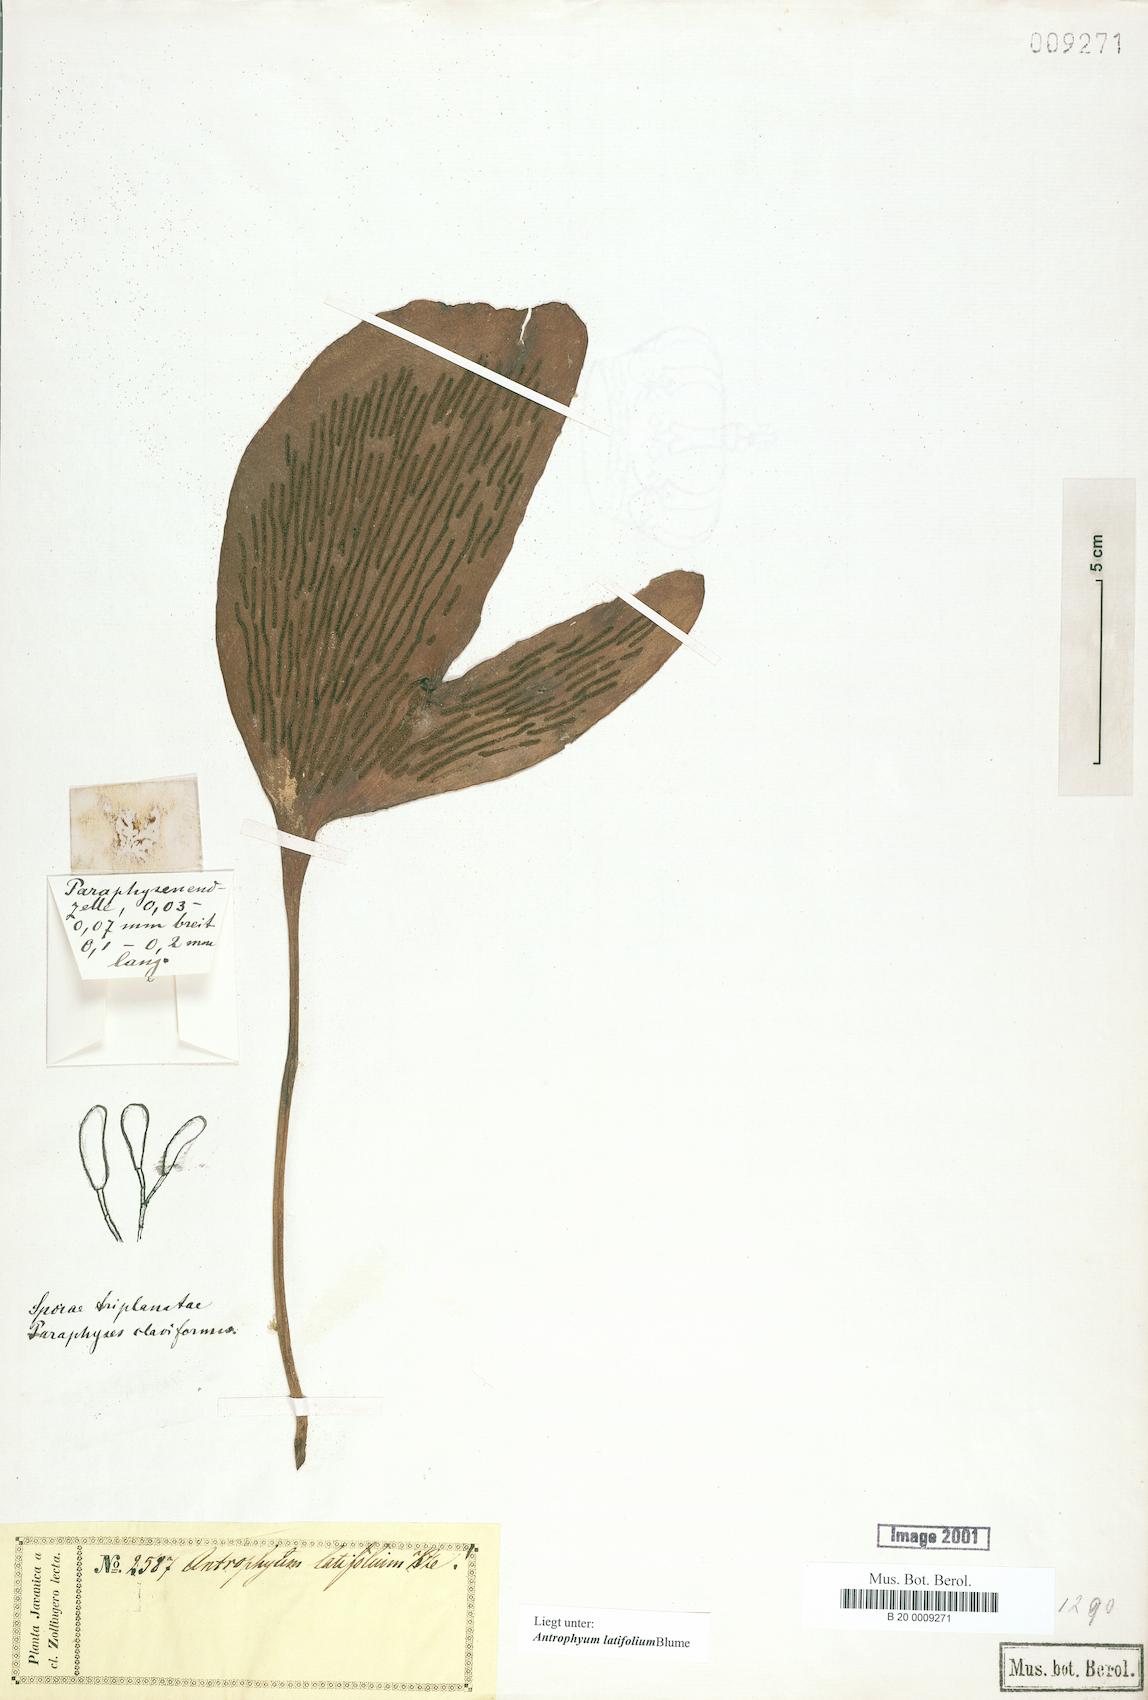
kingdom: Plantae
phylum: Tracheophyta
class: Polypodiopsida
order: Polypodiales
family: Pteridaceae
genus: Antrophyum
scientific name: Antrophyum latifolium
